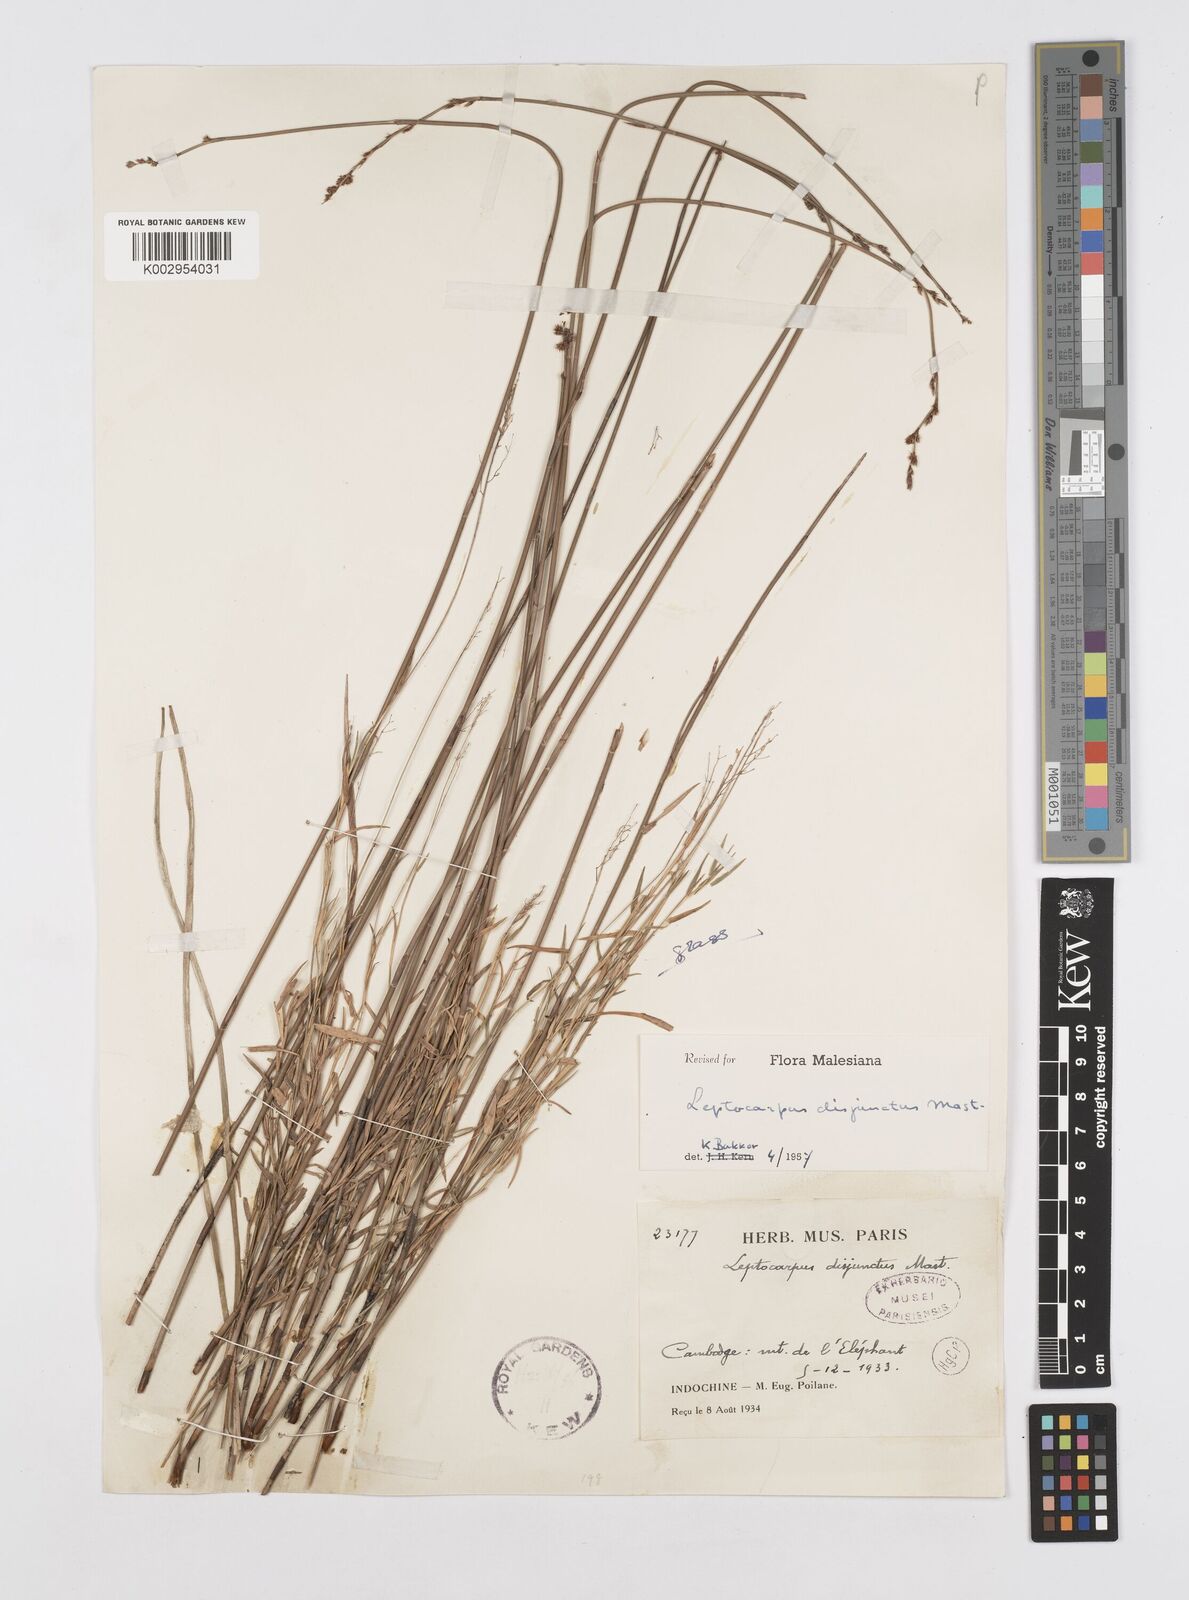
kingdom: Plantae
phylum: Tracheophyta
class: Liliopsida
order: Poales
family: Restionaceae
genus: Dapsilanthus
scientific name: Dapsilanthus disjunctus
